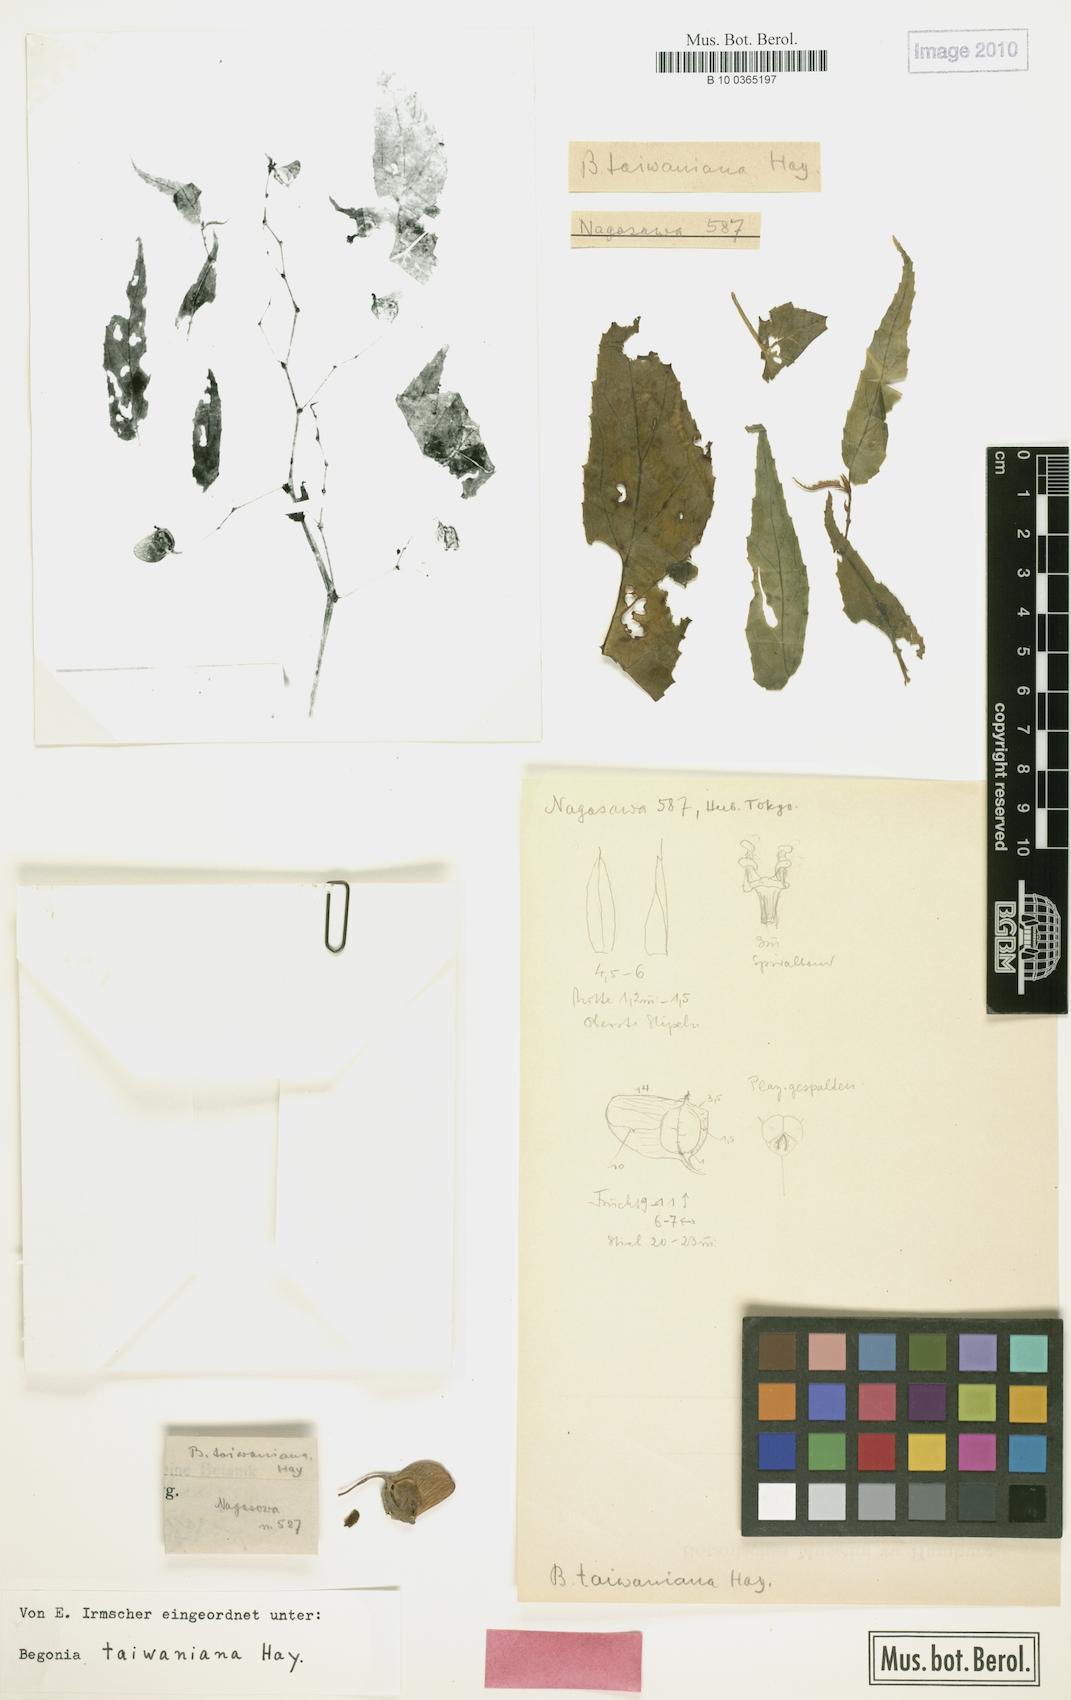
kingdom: Plantae
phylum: Tracheophyta
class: Magnoliopsida
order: Cucurbitales
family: Begoniaceae
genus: Begonia
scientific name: Begonia taiwaniana
